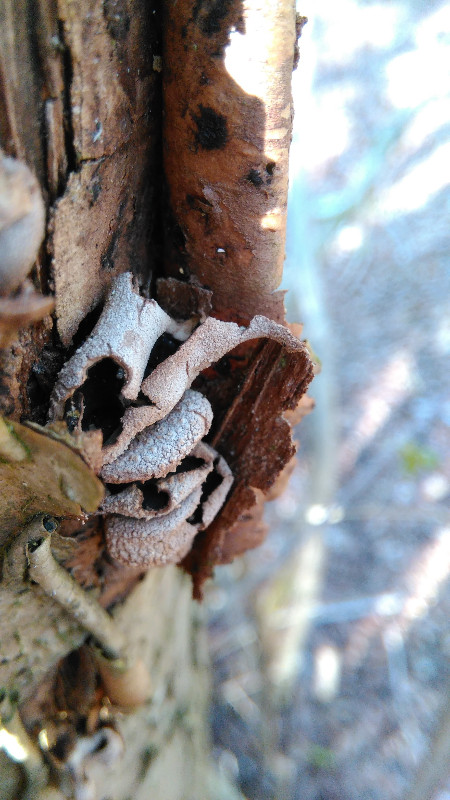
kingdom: Fungi
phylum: Ascomycota
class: Leotiomycetes
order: Helotiales
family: Cenangiaceae
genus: Encoelia
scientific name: Encoelia furfuracea
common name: hassel-læderskive
